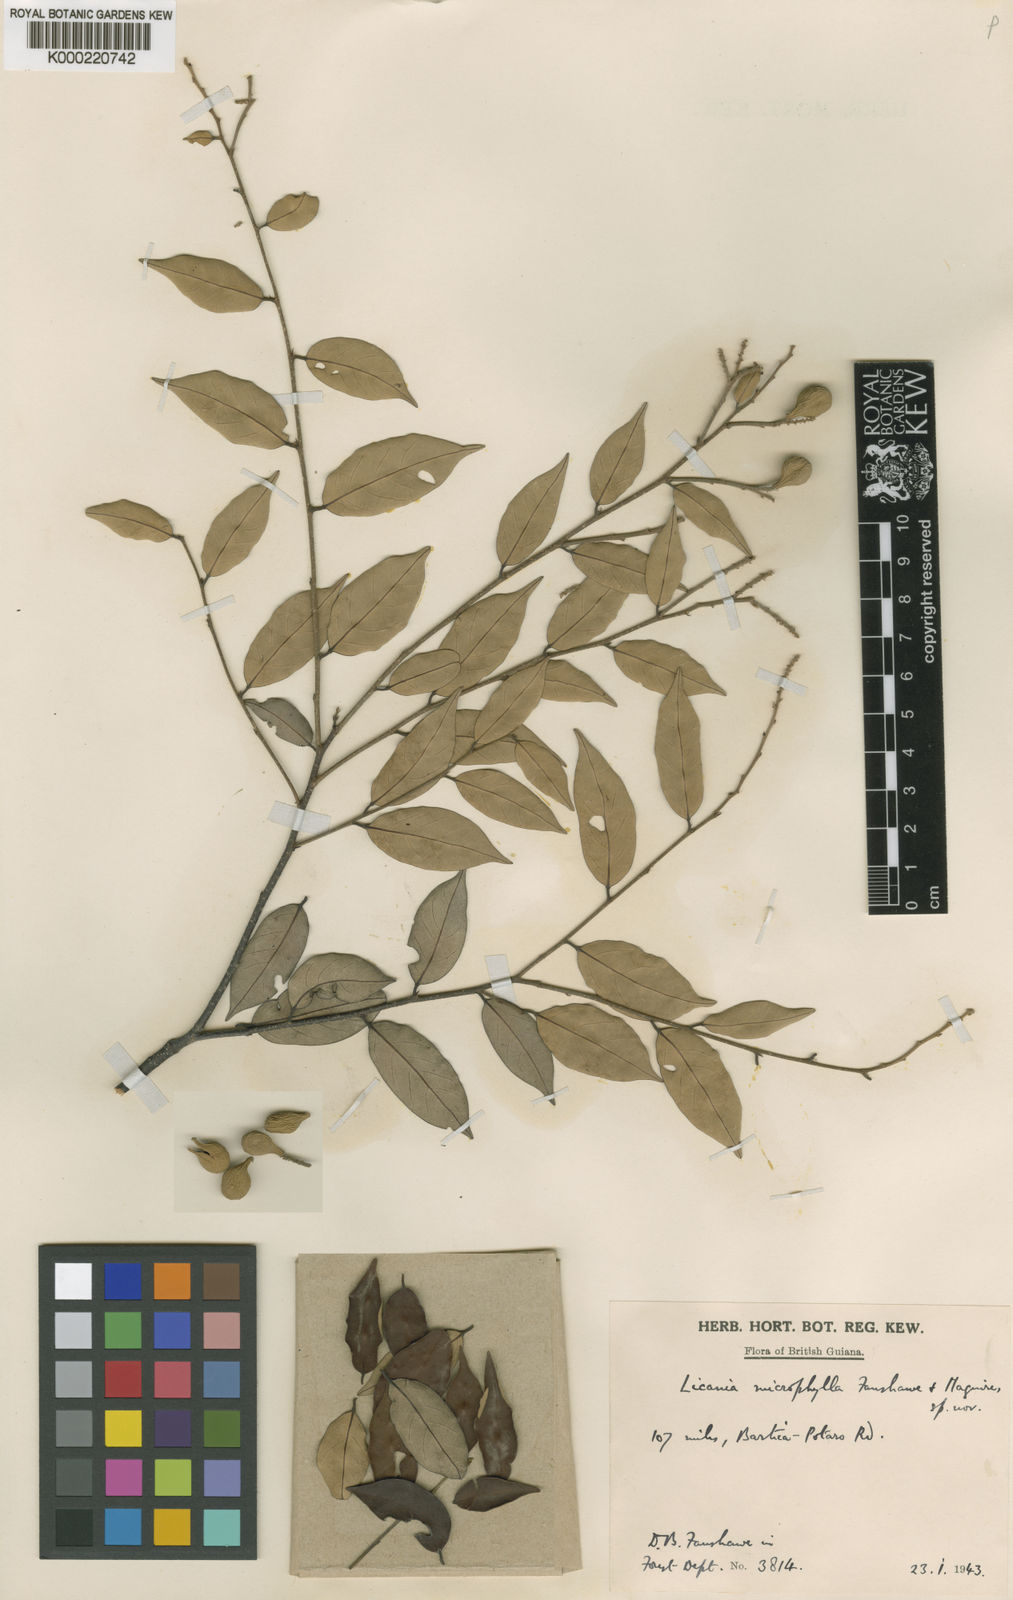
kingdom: Plantae
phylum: Tracheophyta
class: Magnoliopsida
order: Malpighiales
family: Chrysobalanaceae
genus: Licania
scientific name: Licania microphylla
